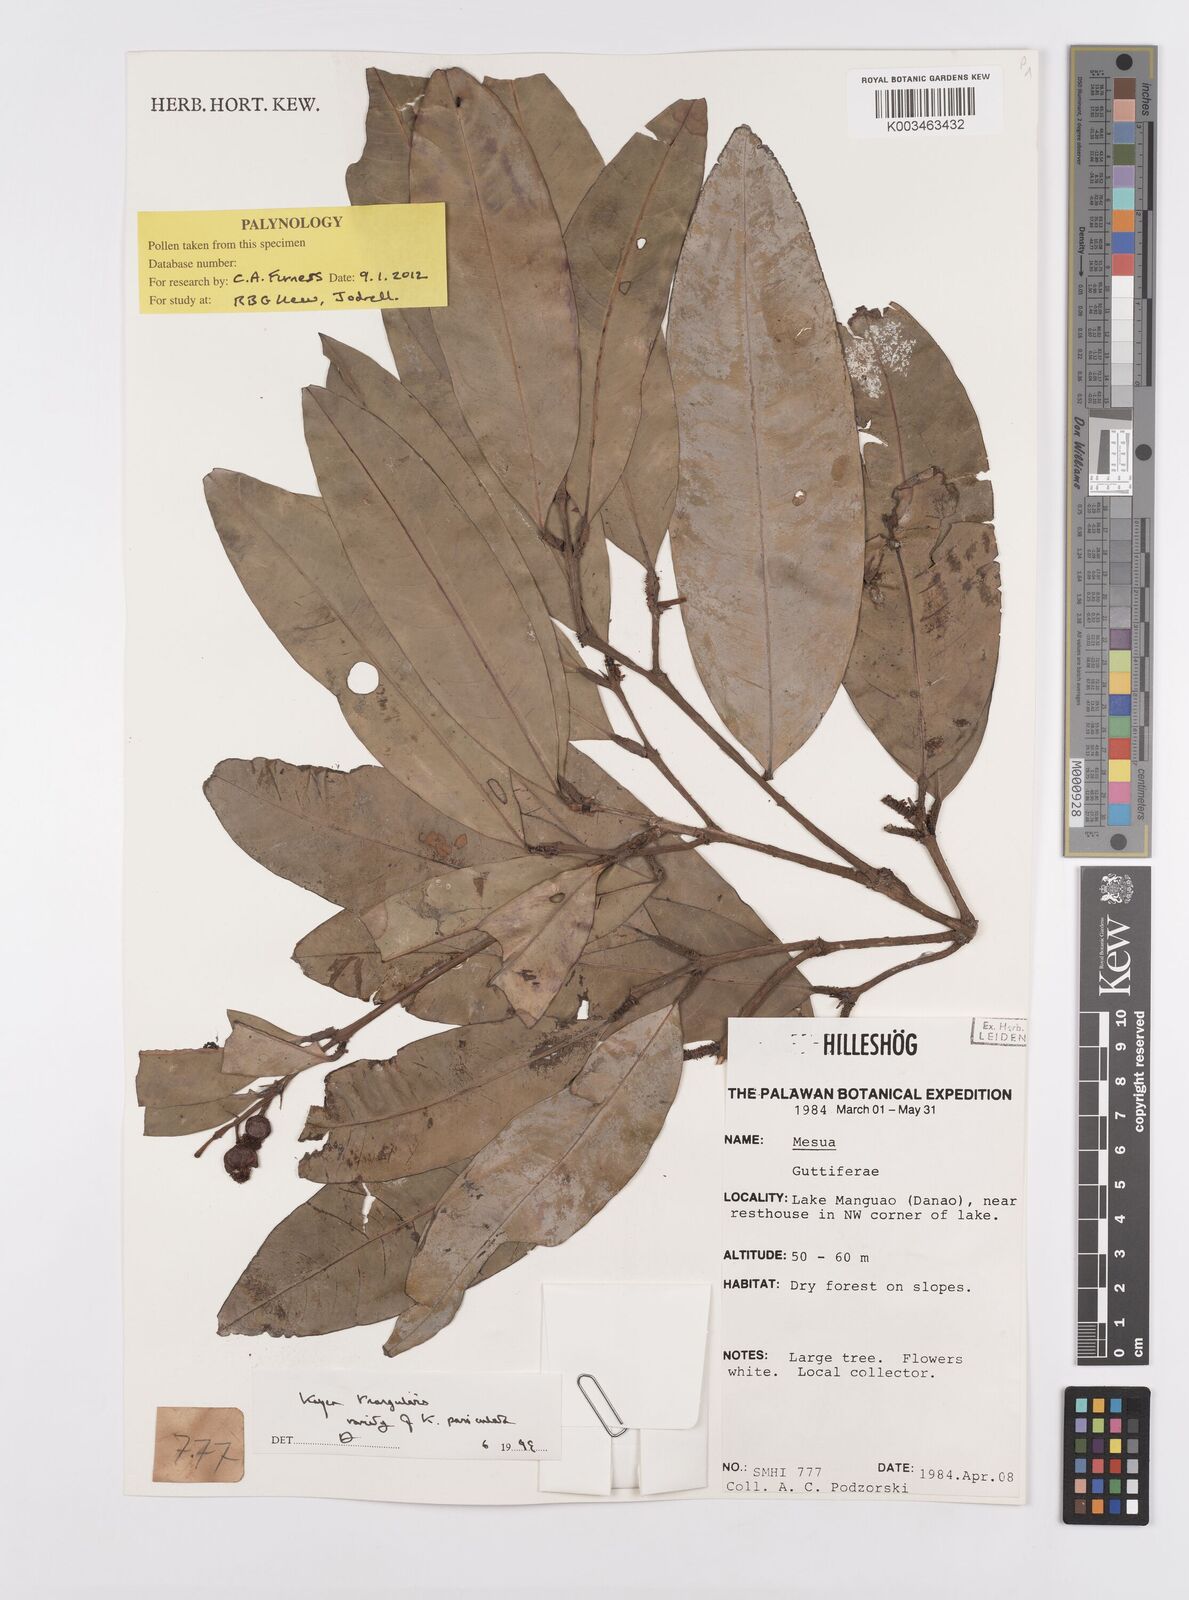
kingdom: Plantae
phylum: Tracheophyta
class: Magnoliopsida
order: Malpighiales
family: Calophyllaceae
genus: Kayea
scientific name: Kayea
